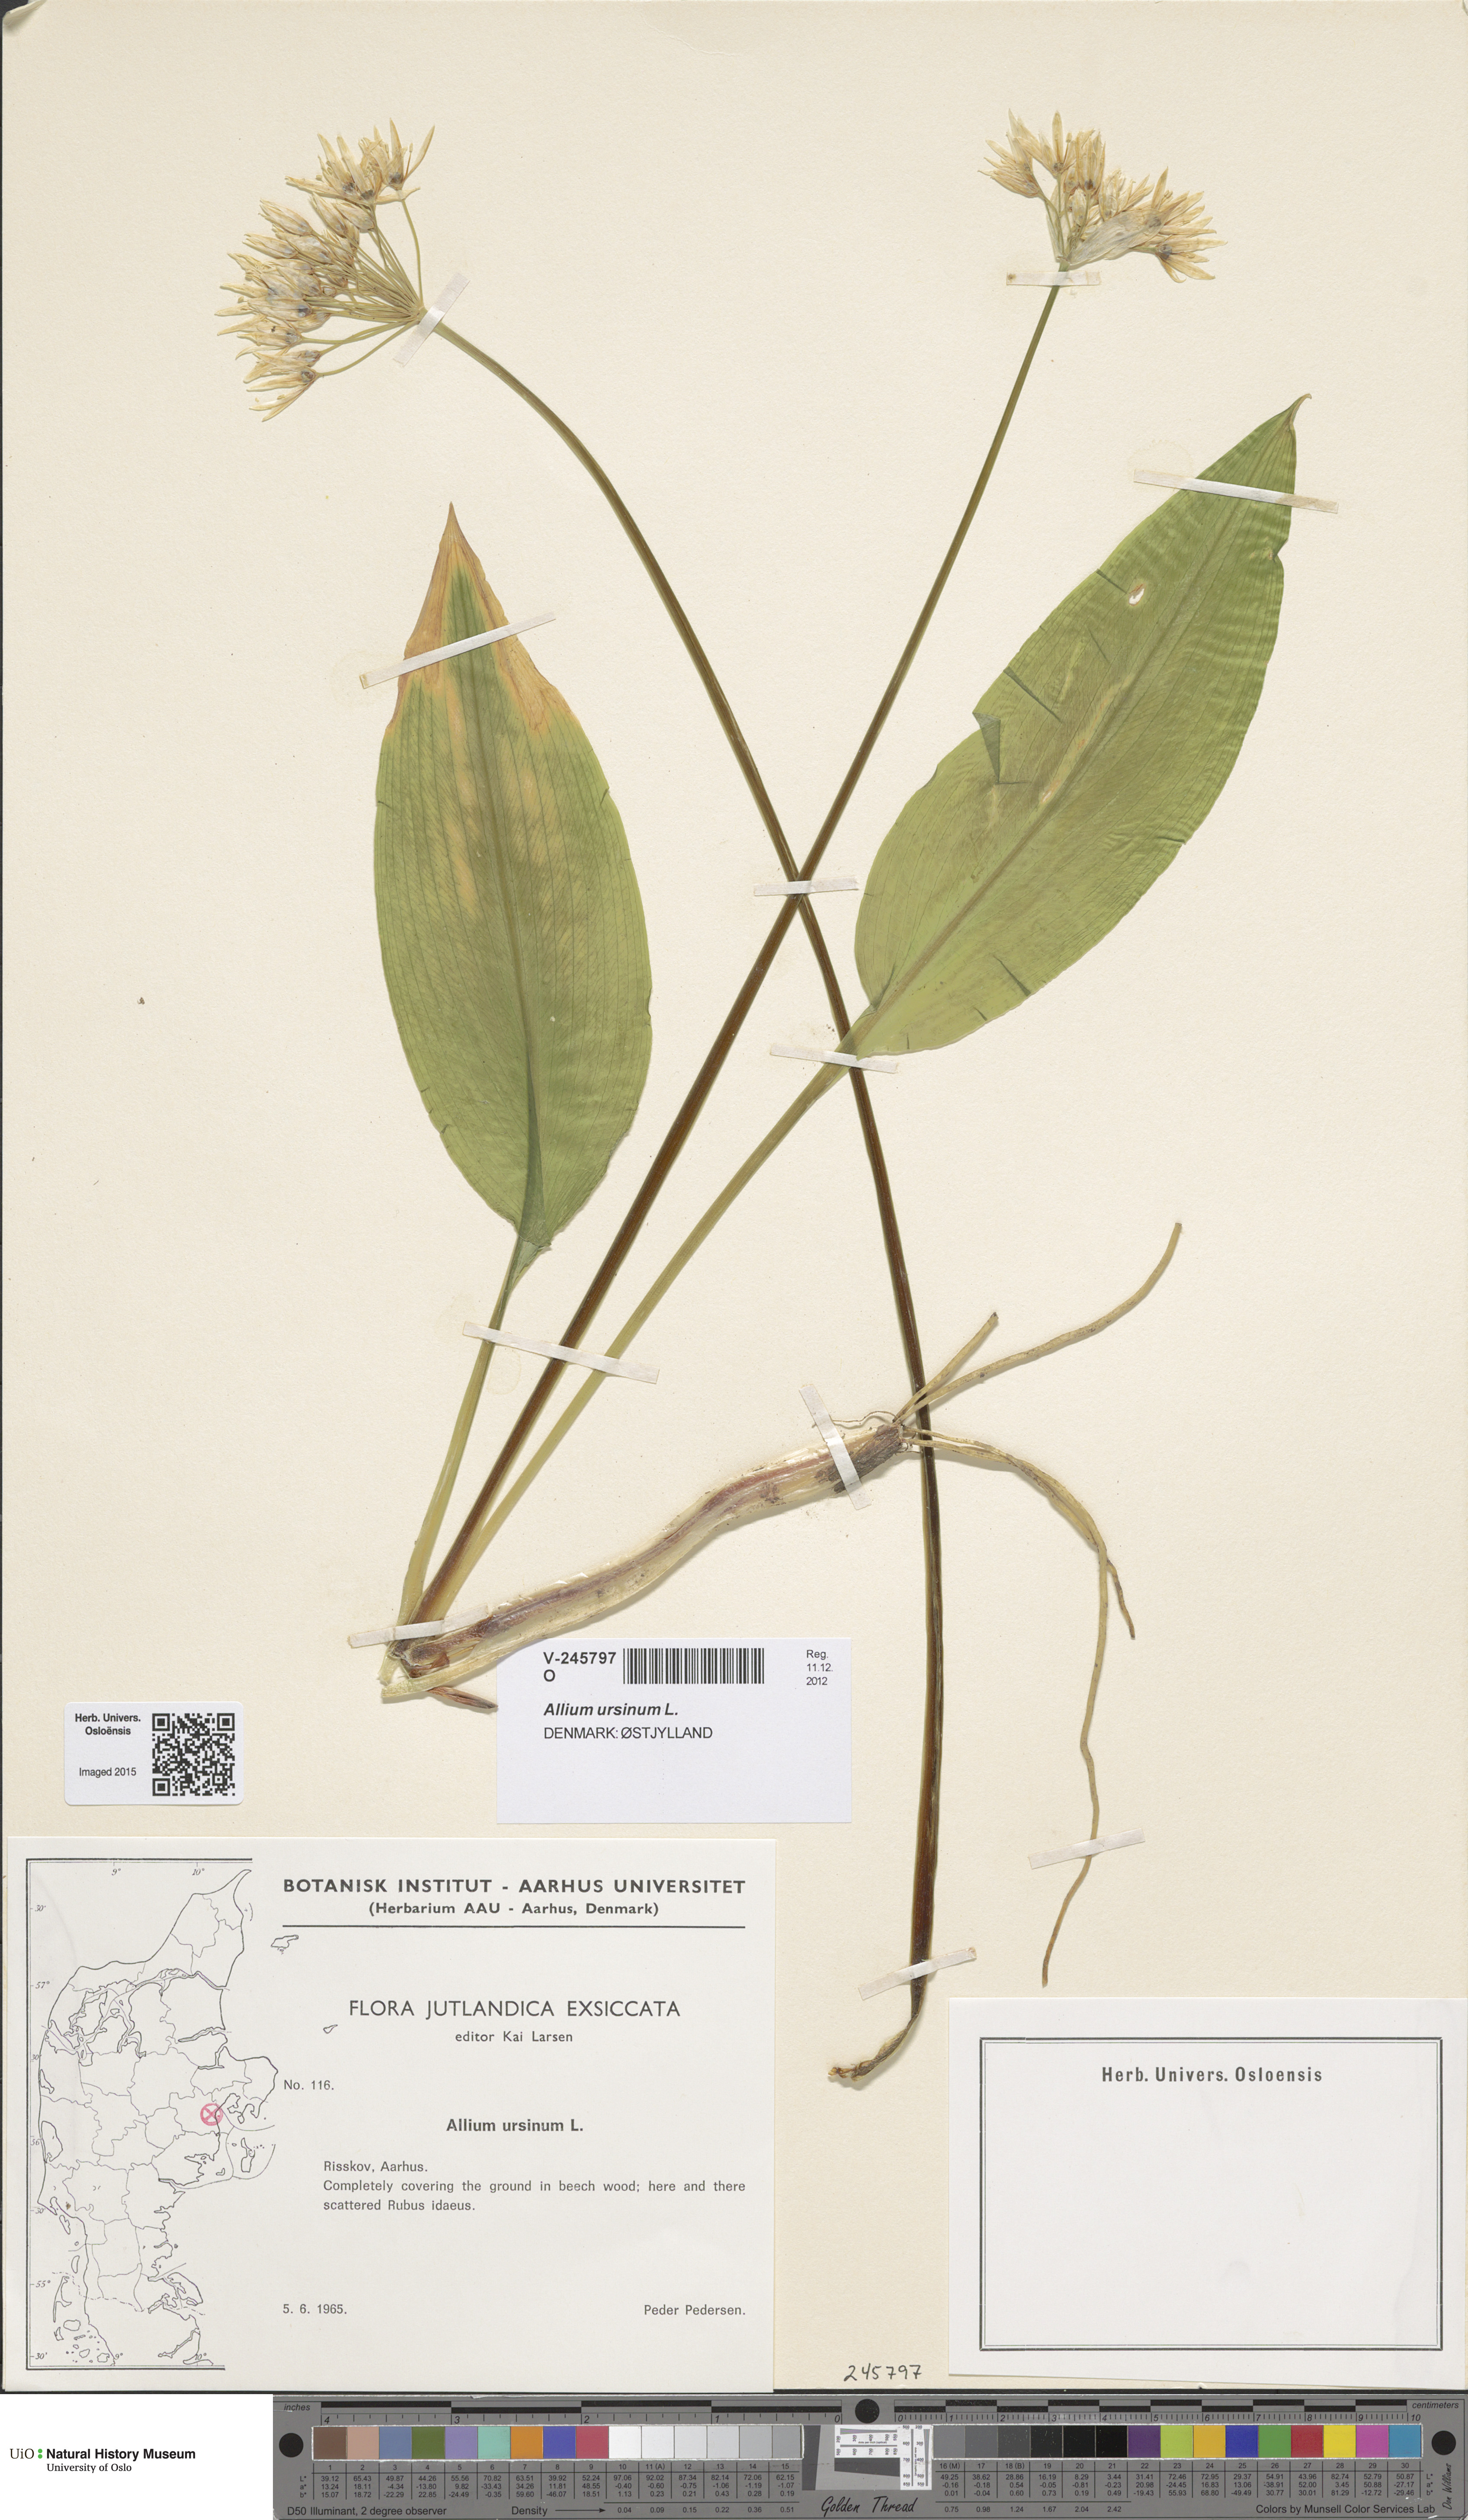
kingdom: Plantae
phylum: Tracheophyta
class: Liliopsida
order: Asparagales
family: Amaryllidaceae
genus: Allium
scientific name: Allium ursinum
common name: Ramsons
